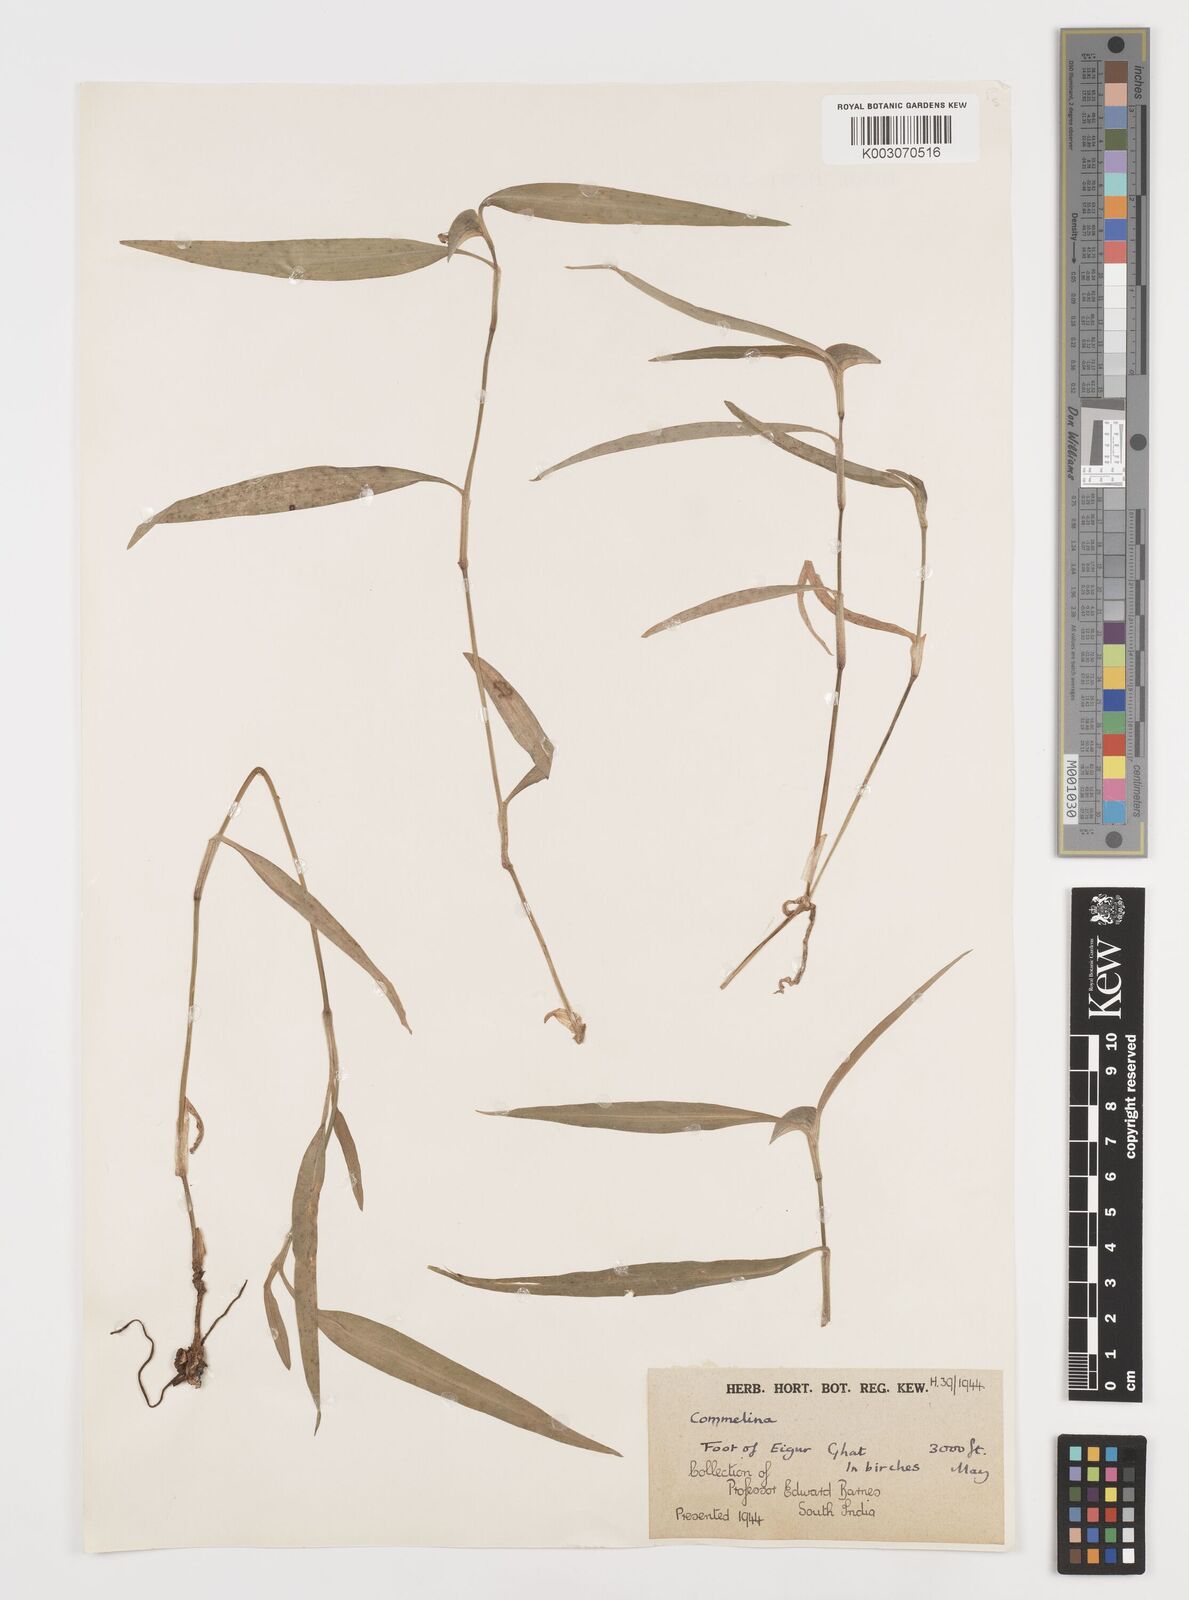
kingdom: Plantae
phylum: Tracheophyta
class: Liliopsida
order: Commelinales
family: Commelinaceae
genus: Commelina
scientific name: Commelina
